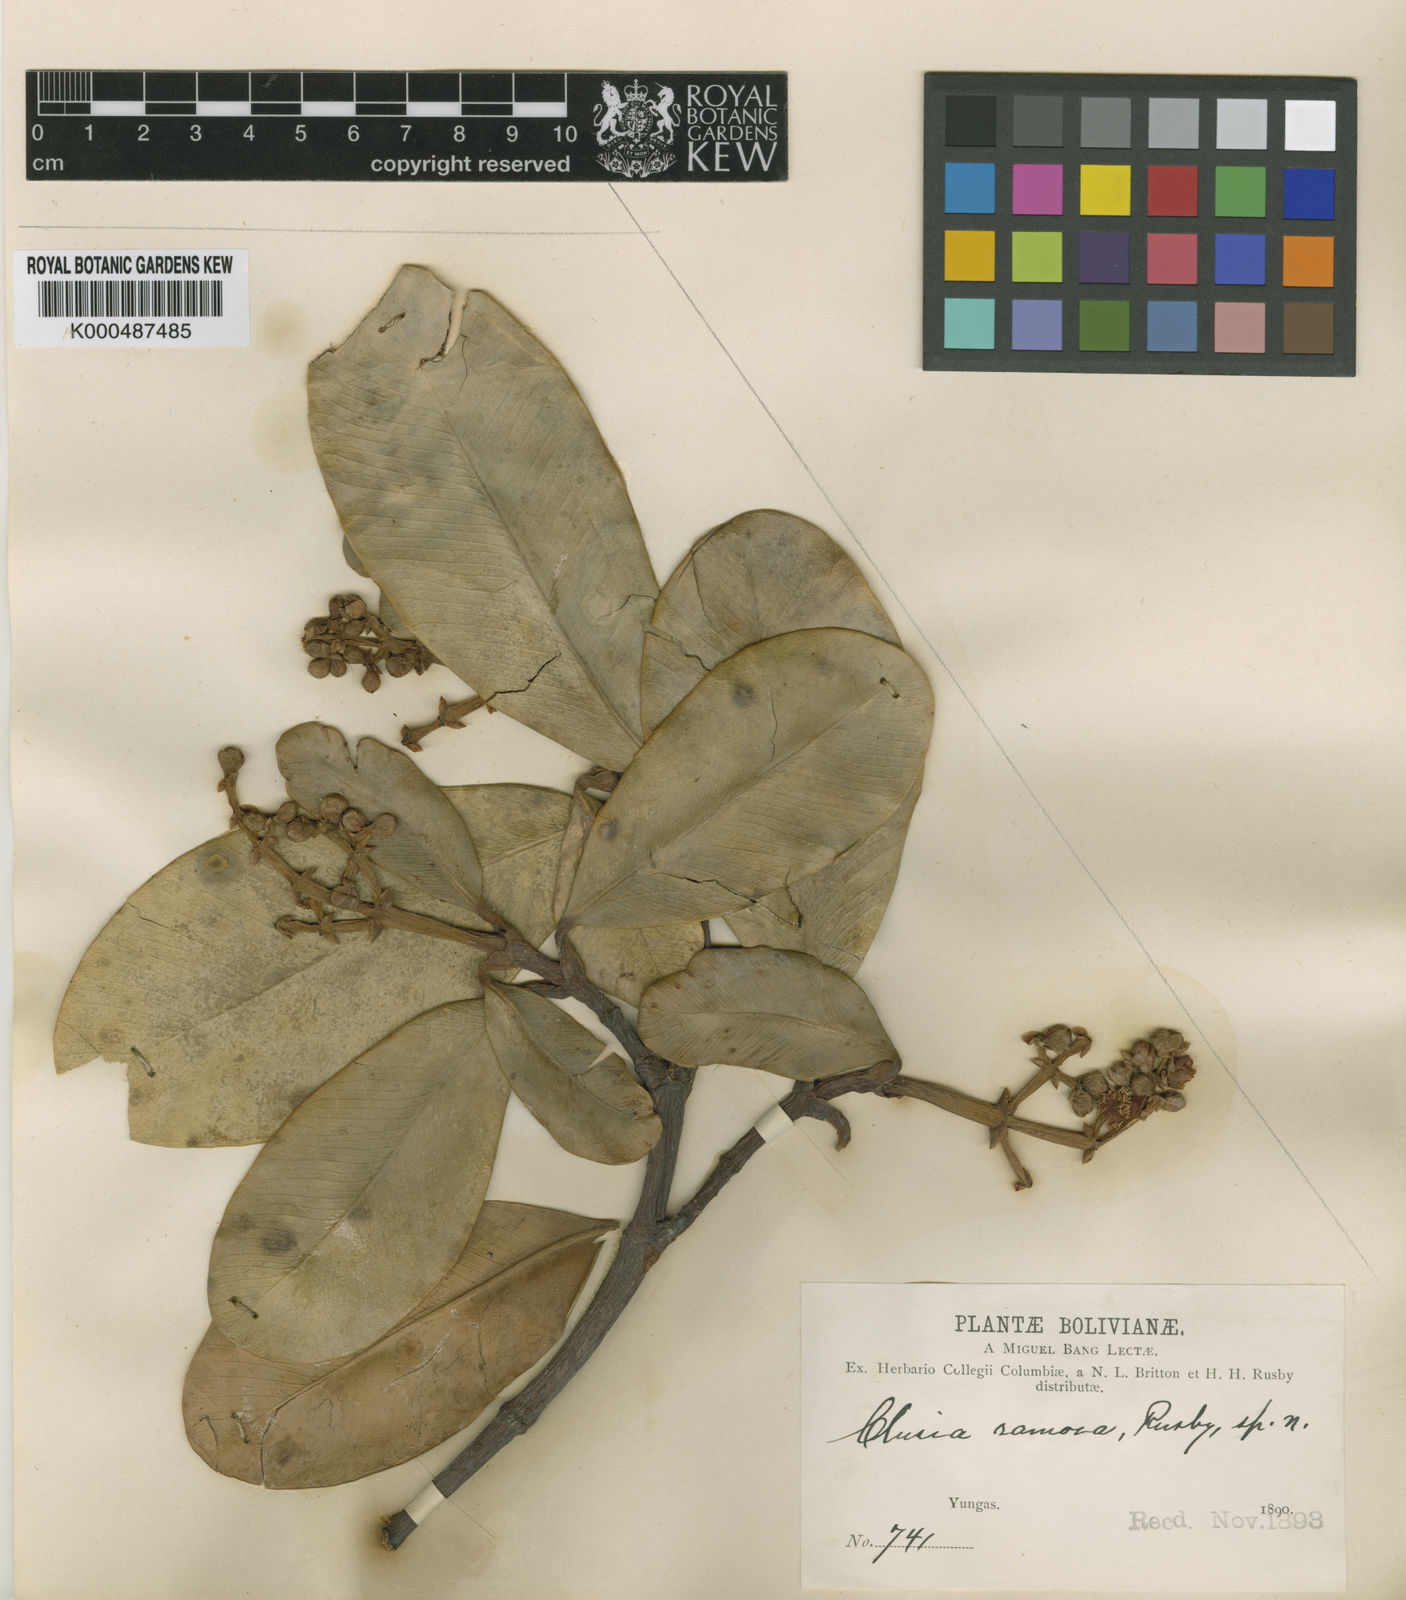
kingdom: Plantae
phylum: Tracheophyta
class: Magnoliopsida
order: Malpighiales
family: Clusiaceae
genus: Clusia
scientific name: Clusia ramosa
